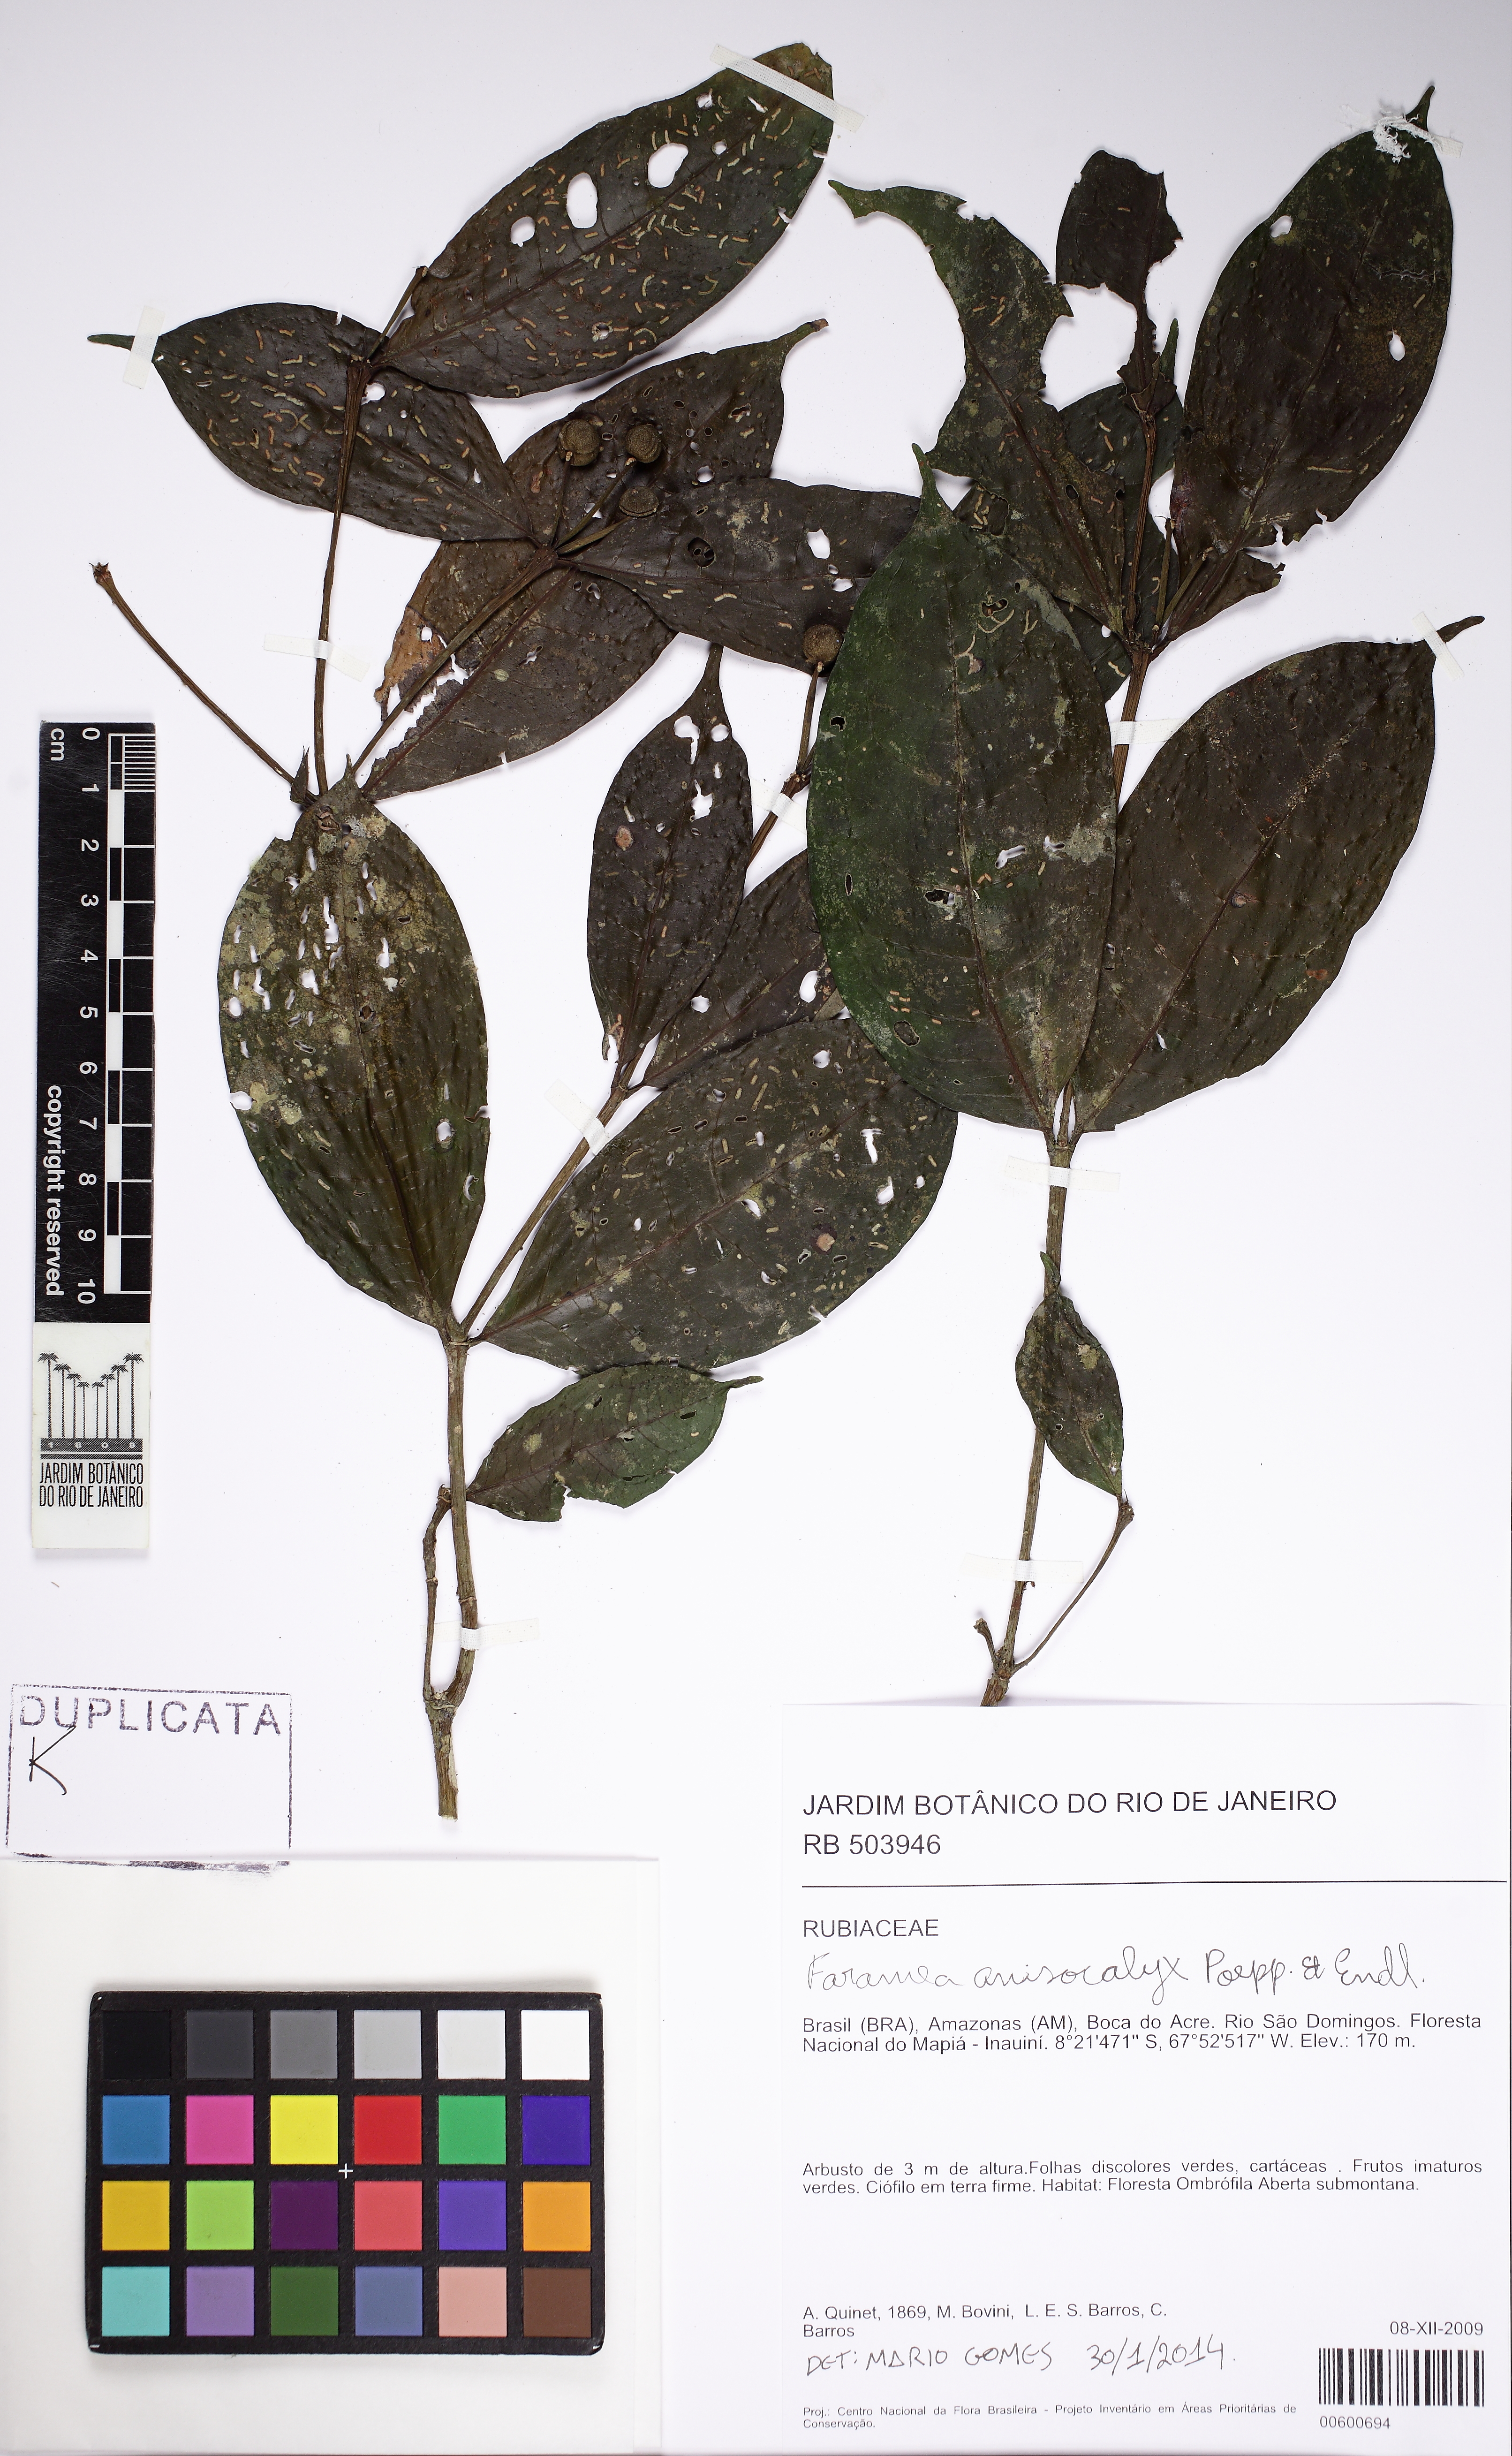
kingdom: Plantae
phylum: Tracheophyta
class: Magnoliopsida
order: Gentianales
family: Rubiaceae
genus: Faramea
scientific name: Faramea anisocalyx
